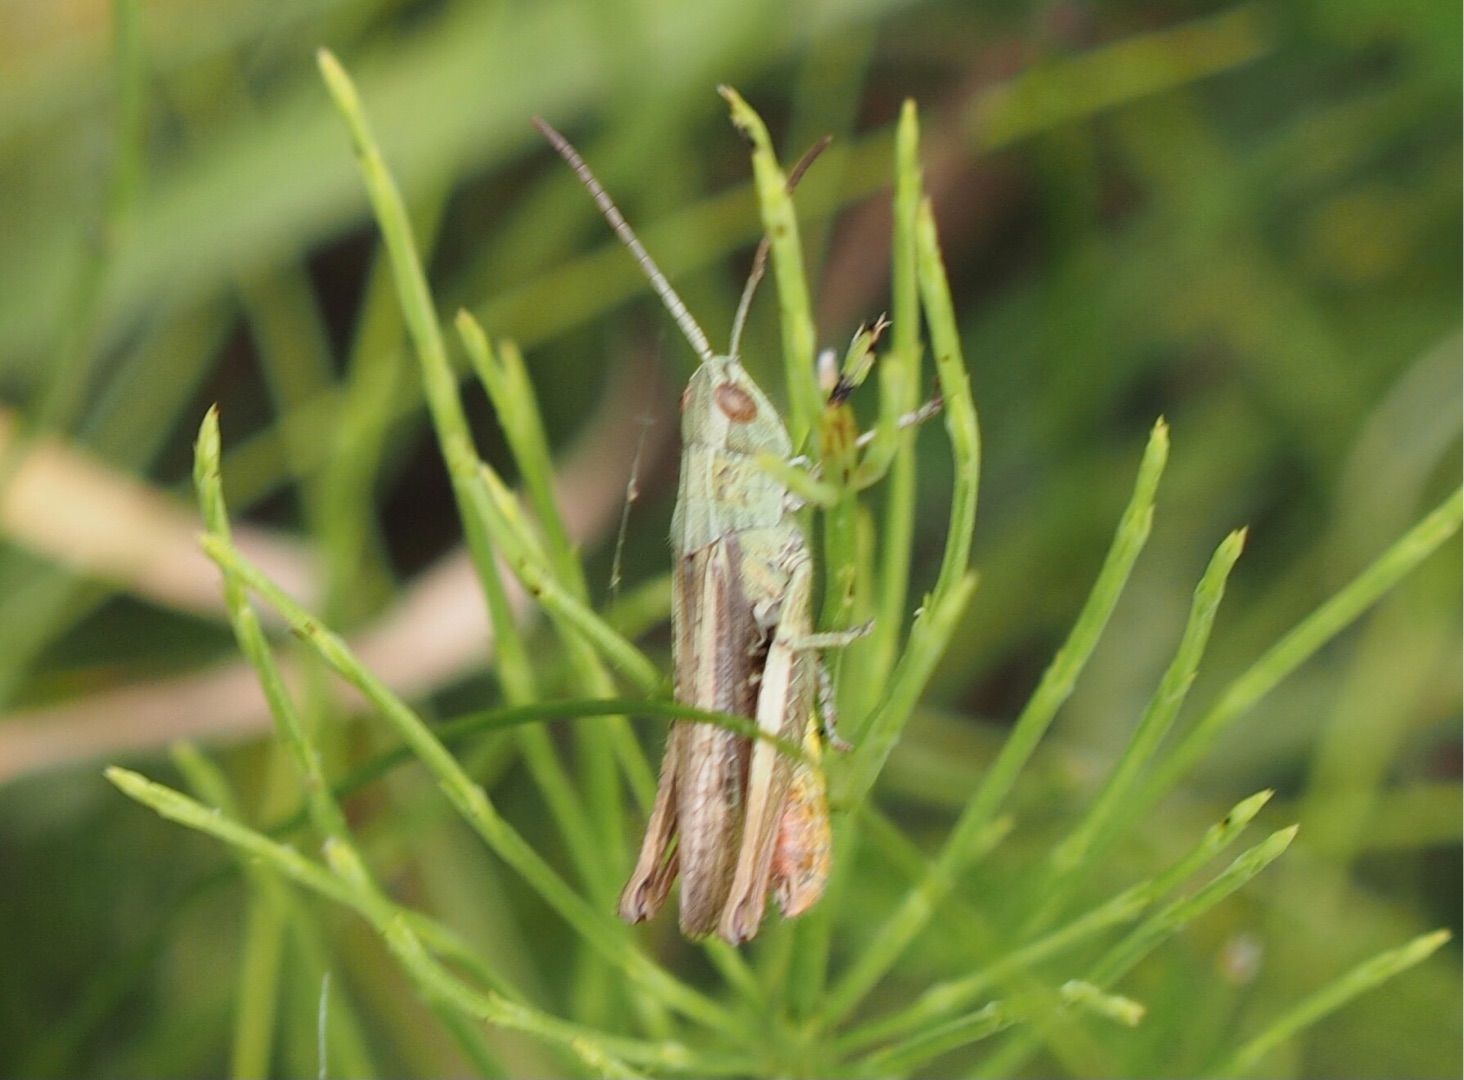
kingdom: Animalia
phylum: Arthropoda
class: Insecta
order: Orthoptera
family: Acrididae
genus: Chorthippus
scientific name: Chorthippus dorsatus
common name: Stor enggræshoppe
